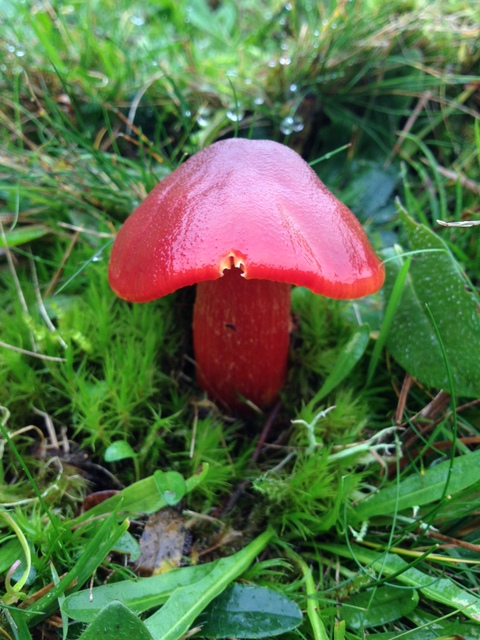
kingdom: Fungi
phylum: Basidiomycota
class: Agaricomycetes
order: Agaricales
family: Hygrophoraceae
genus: Hygrocybe
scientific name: Hygrocybe punicea
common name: skarlagen-vokshat
